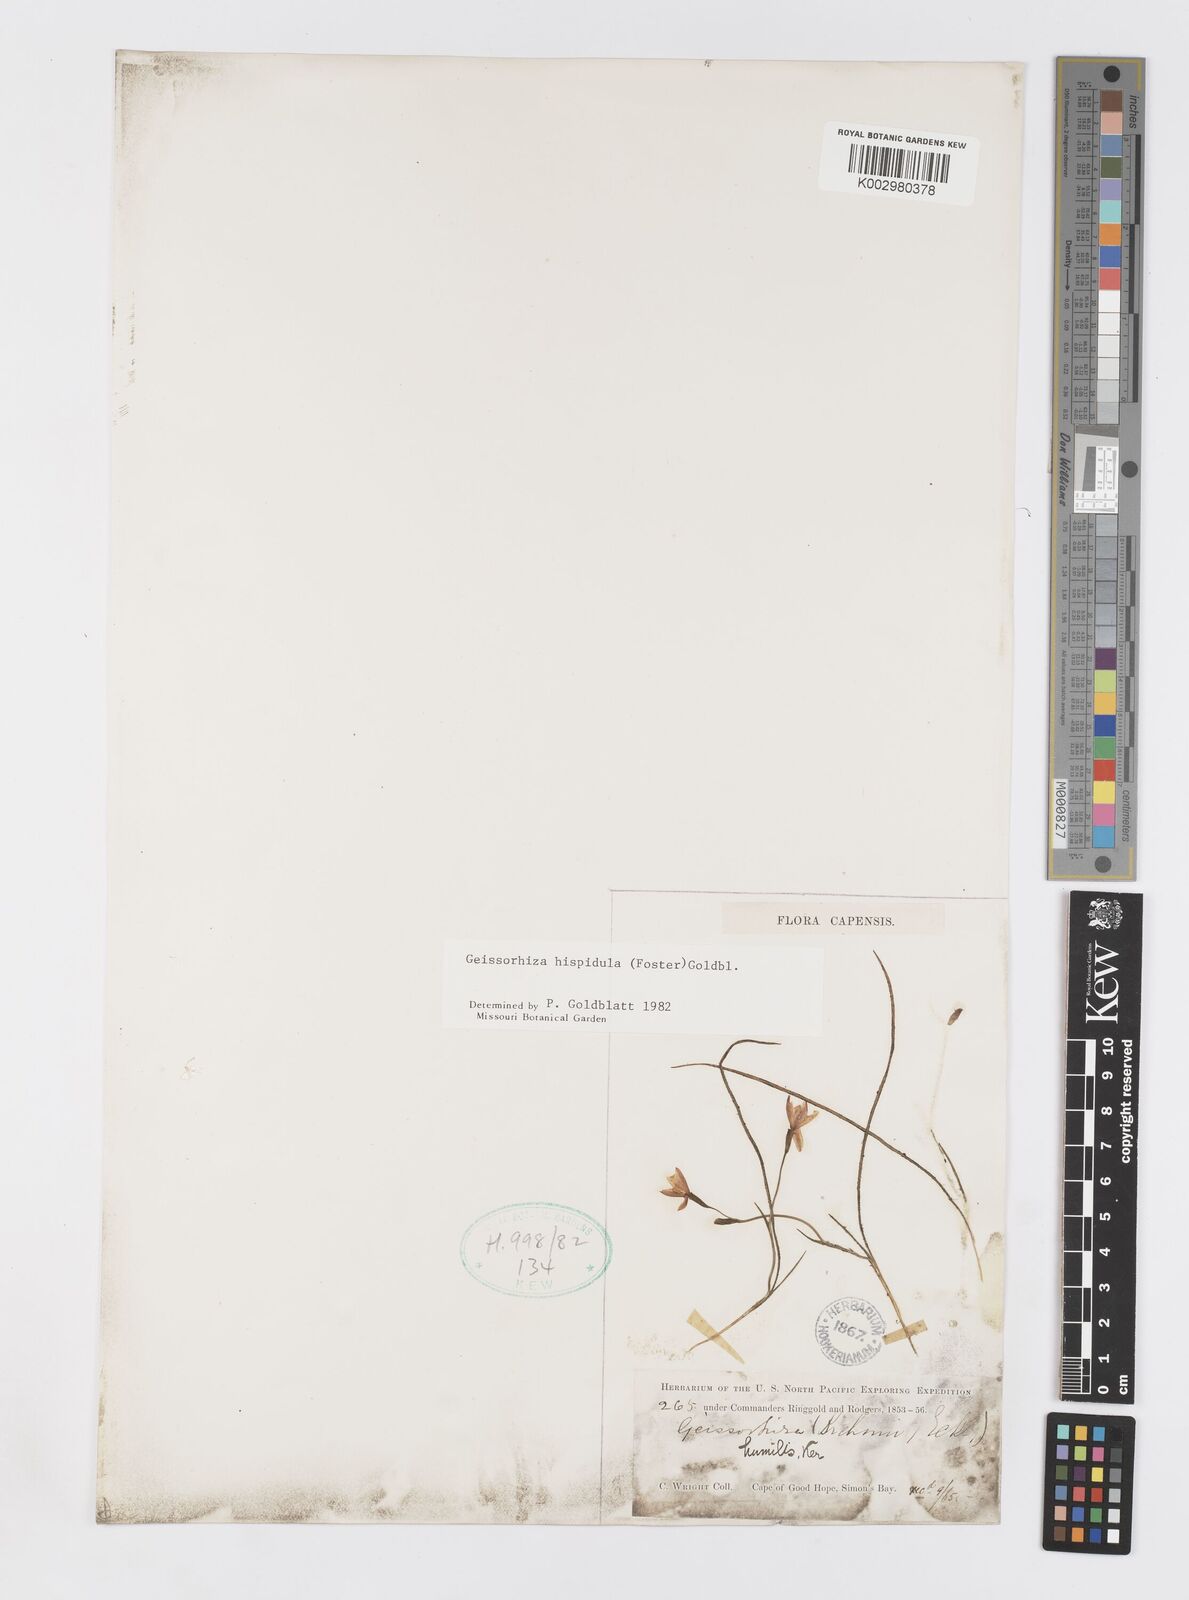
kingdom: Plantae
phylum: Tracheophyta
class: Liliopsida
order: Asparagales
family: Iridaceae
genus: Geissorhiza
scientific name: Geissorhiza hispidula
